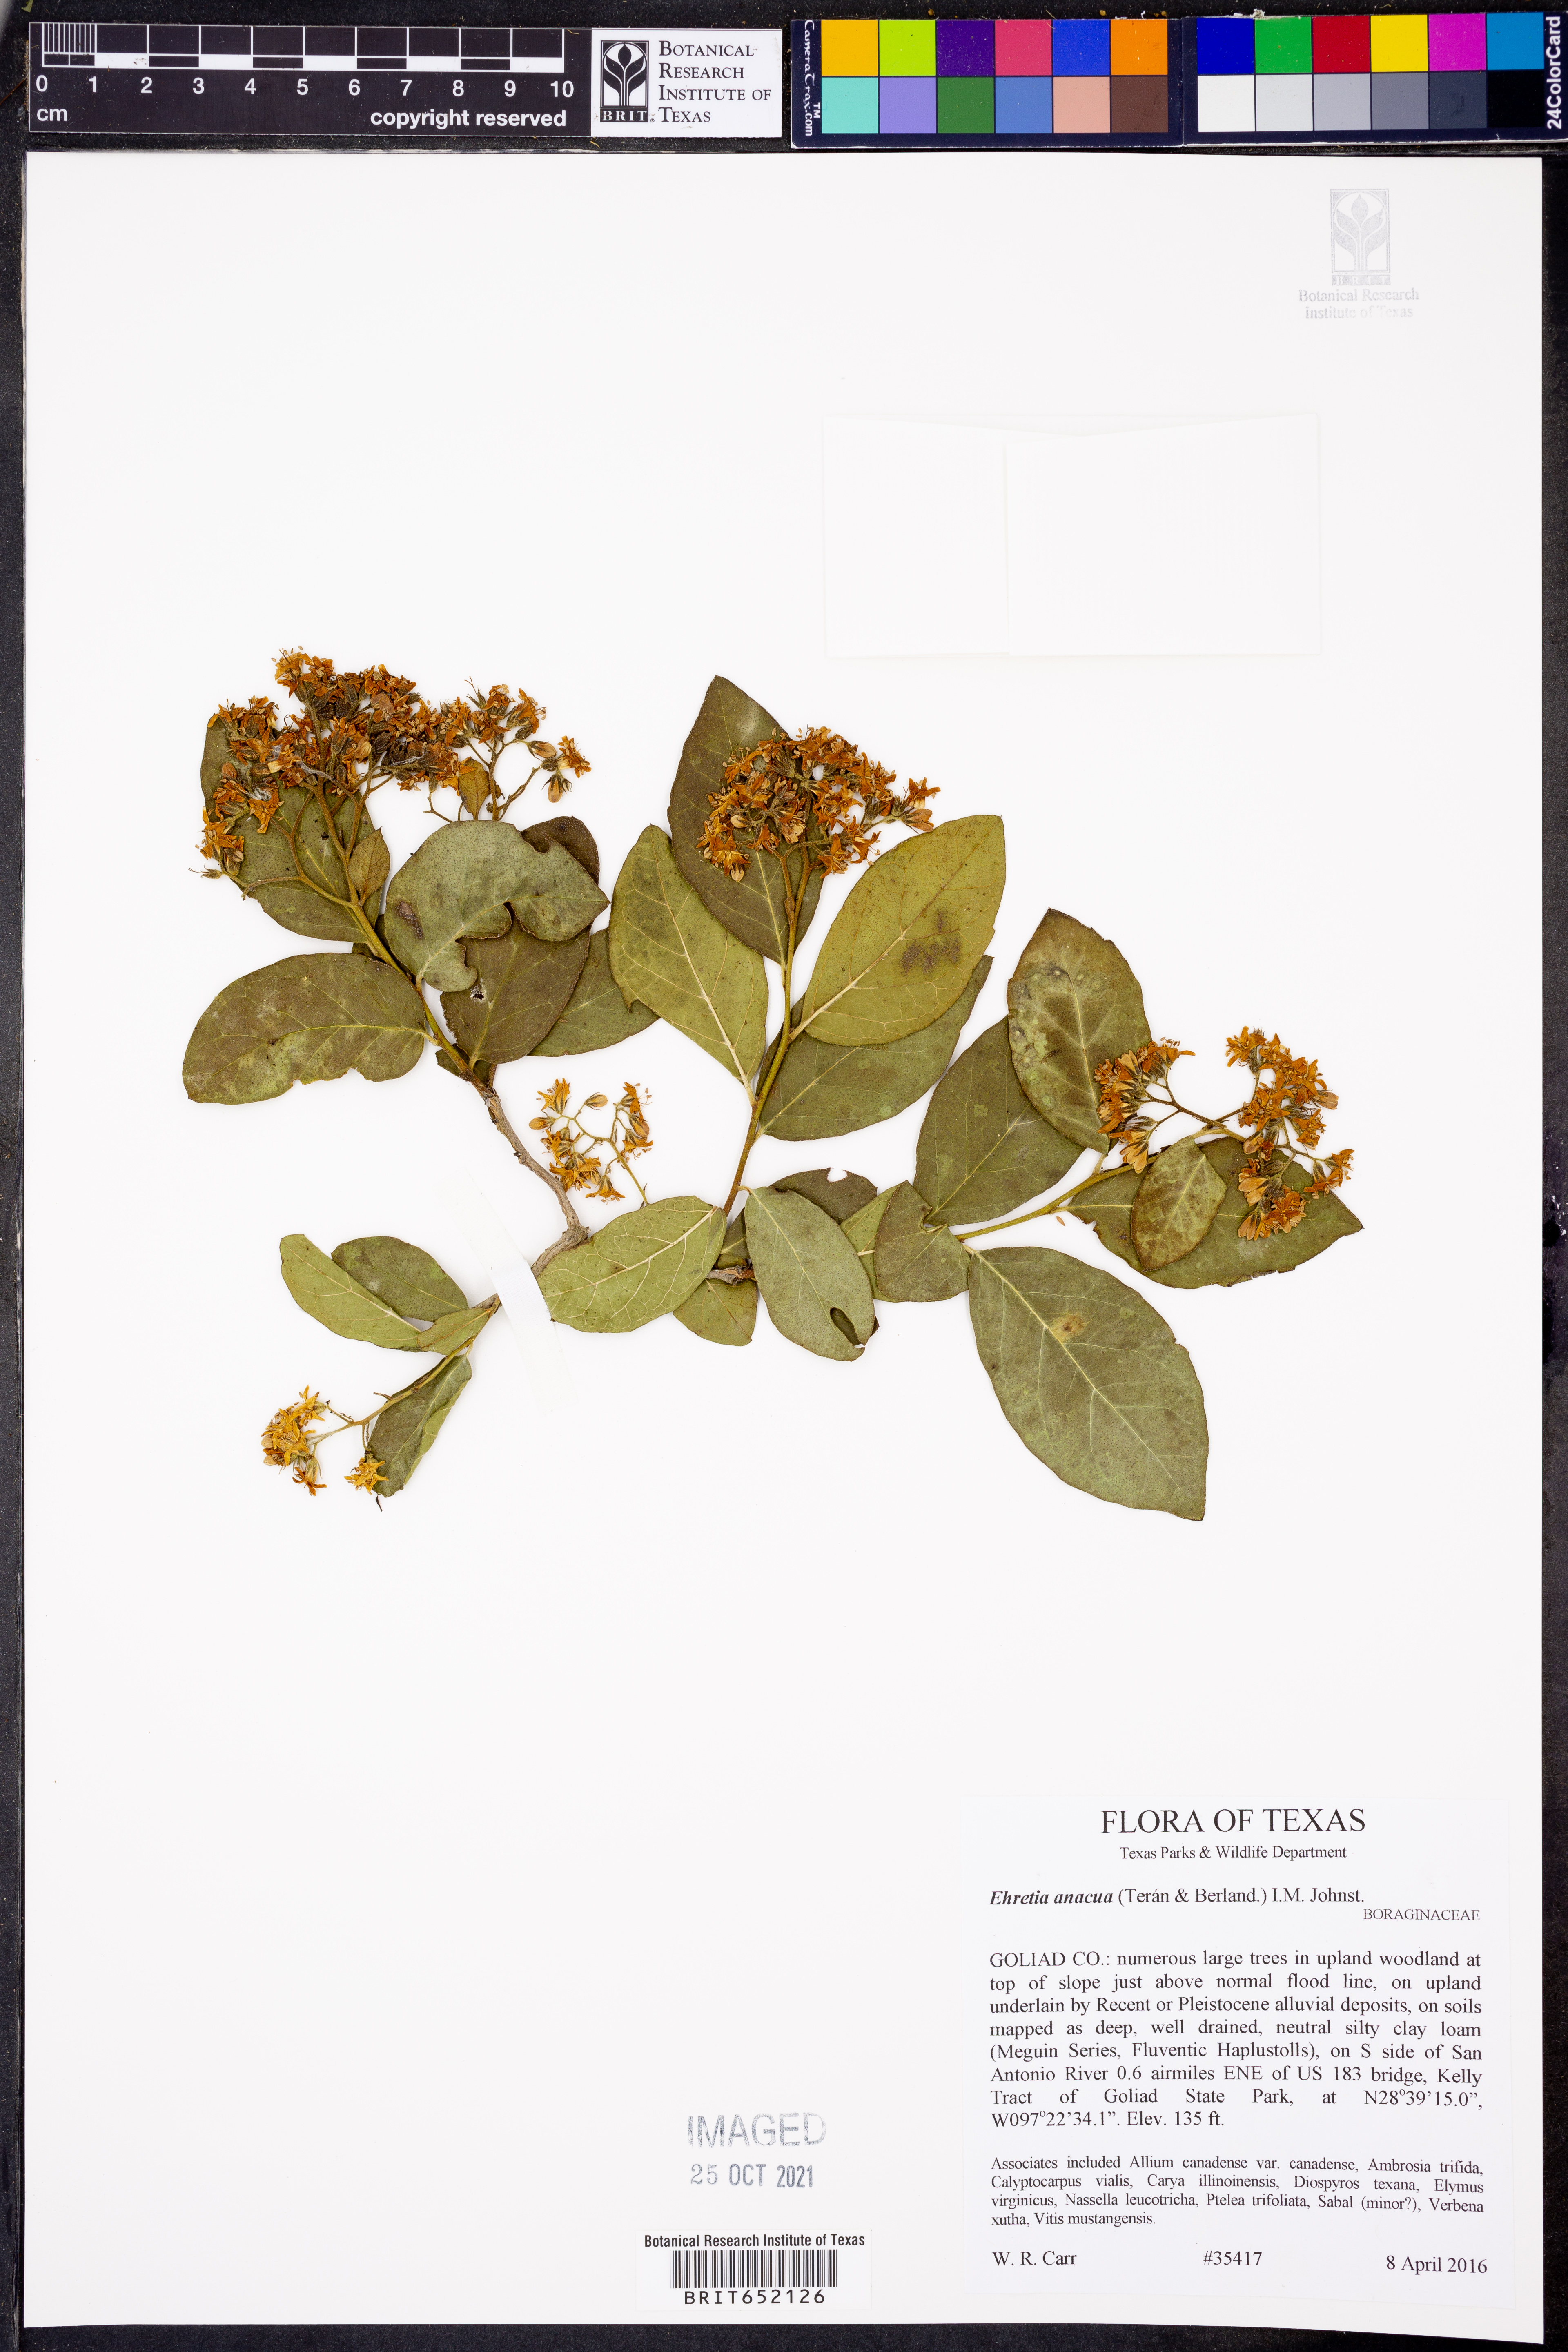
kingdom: Plantae
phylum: Tracheophyta
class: Magnoliopsida
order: Boraginales
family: Ehretiaceae
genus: Ehretia
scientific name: Ehretia anacua
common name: Sugarberry
